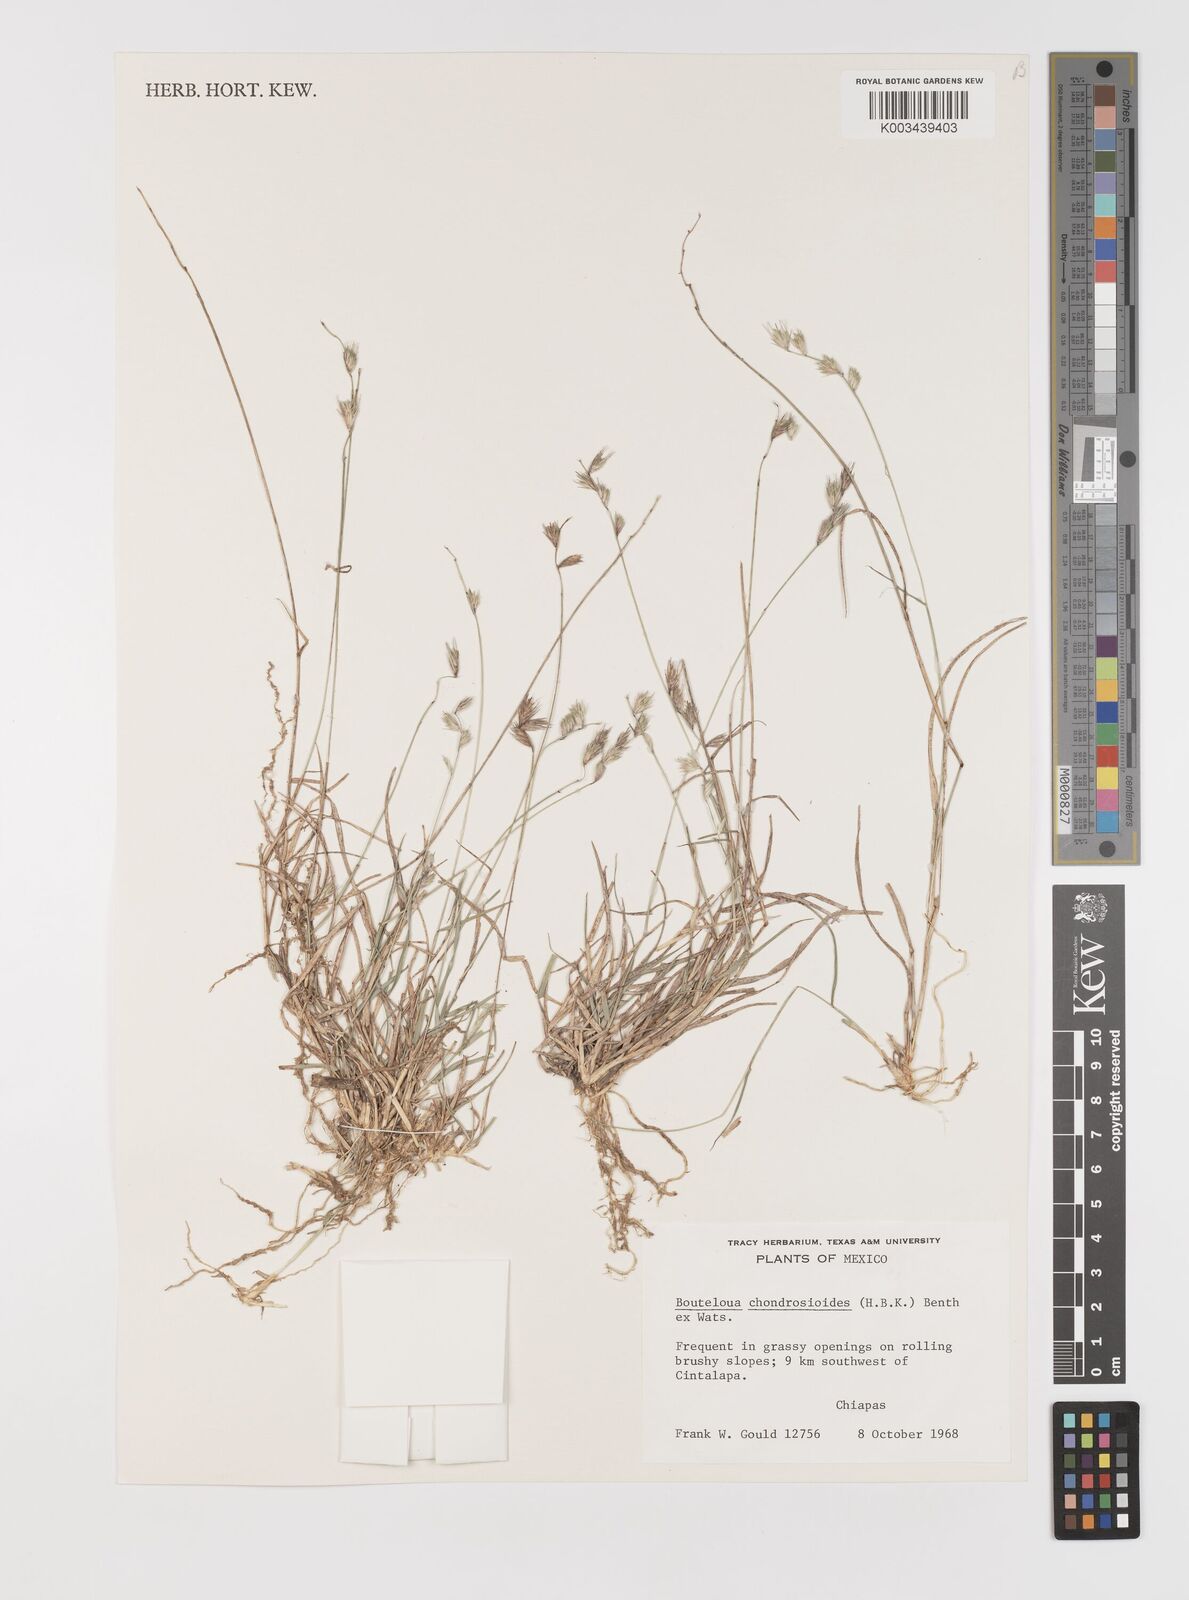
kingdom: Plantae
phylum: Tracheophyta
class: Liliopsida
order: Poales
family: Poaceae
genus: Bouteloua
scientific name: Bouteloua chondrosioides
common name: Sprucetop grama
